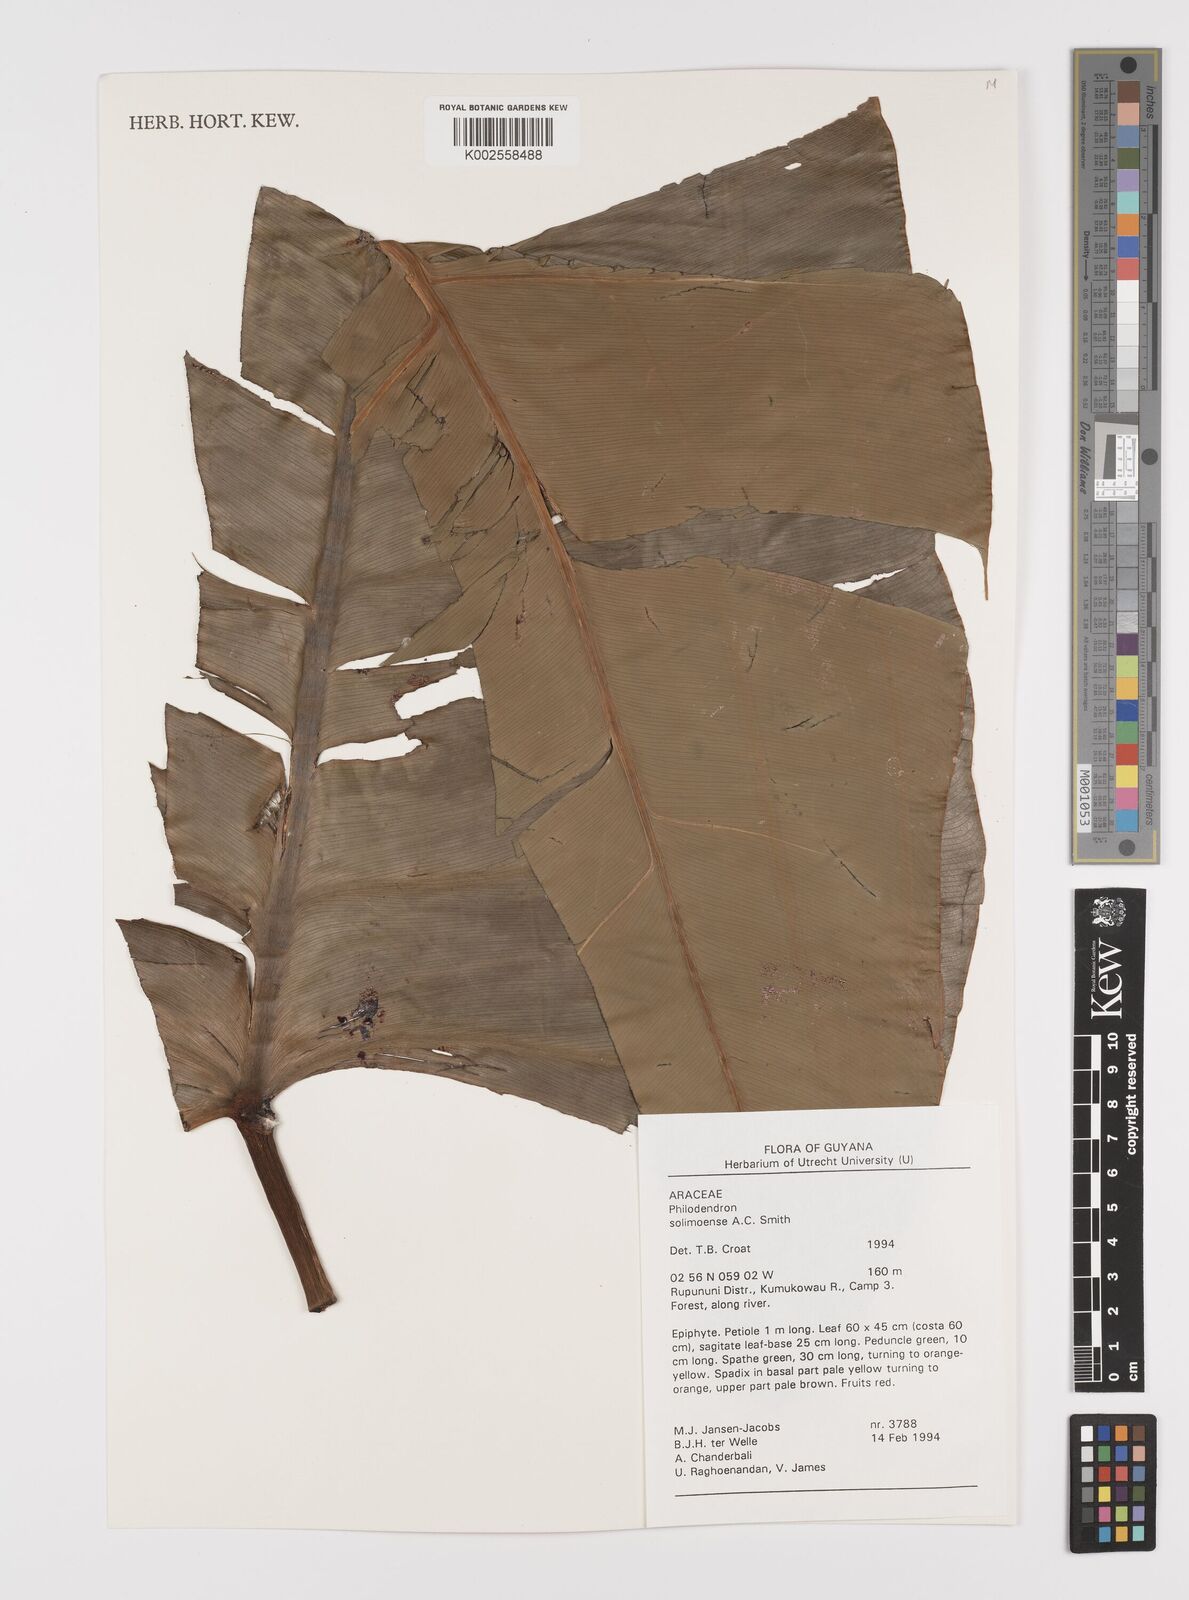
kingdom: Plantae
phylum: Tracheophyta
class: Liliopsida
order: Alismatales
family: Araceae
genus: Thaumatophyllum
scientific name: Thaumatophyllum solimoesense
